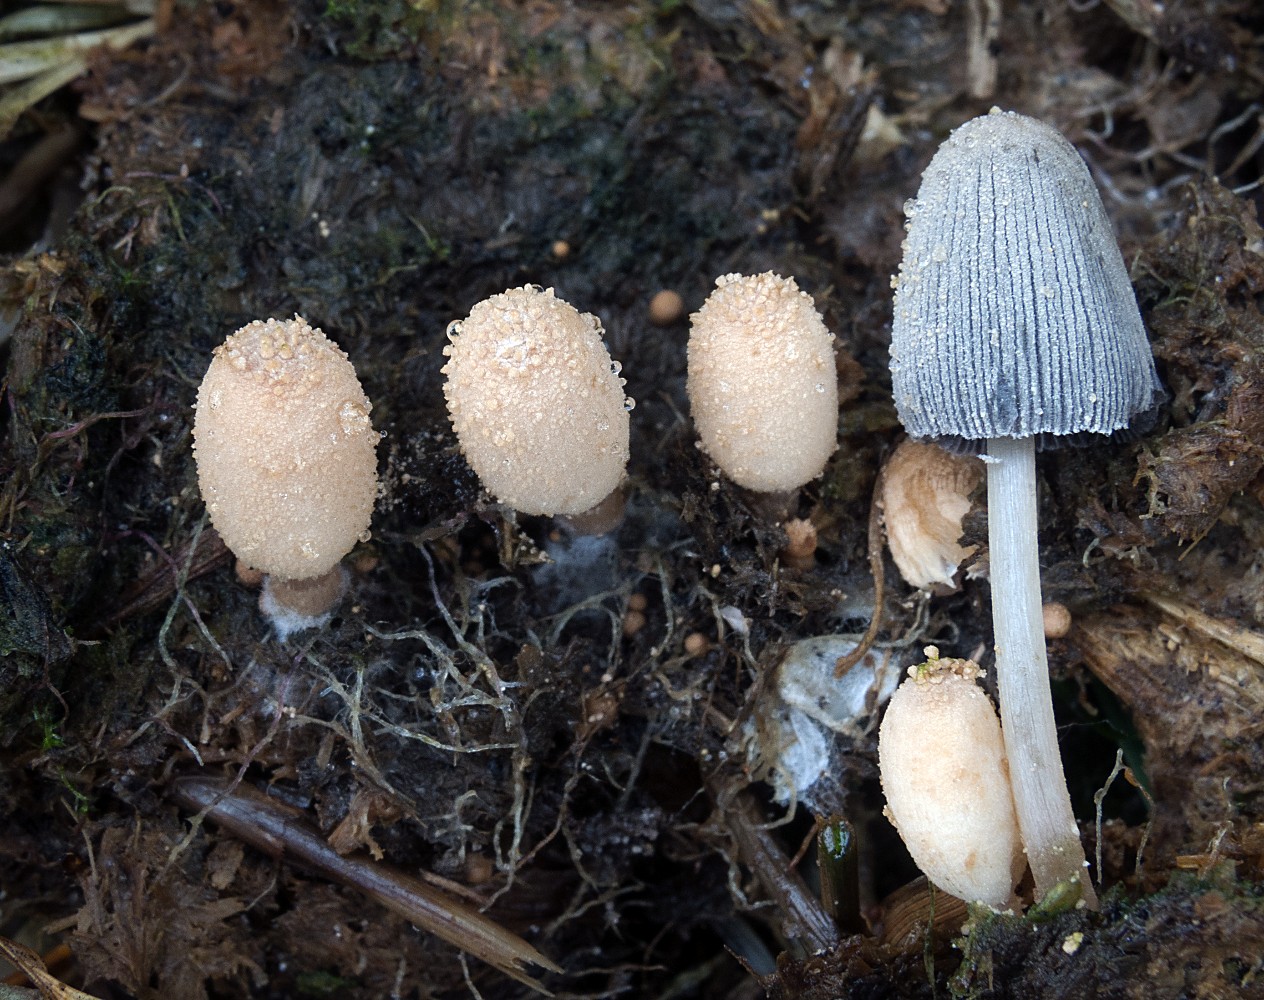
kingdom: Fungi
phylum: Basidiomycota
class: Agaricomycetes
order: Agaricales
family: Psathyrellaceae
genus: Narcissea
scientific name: Narcissea ephemeroides
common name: ring-blækhat
